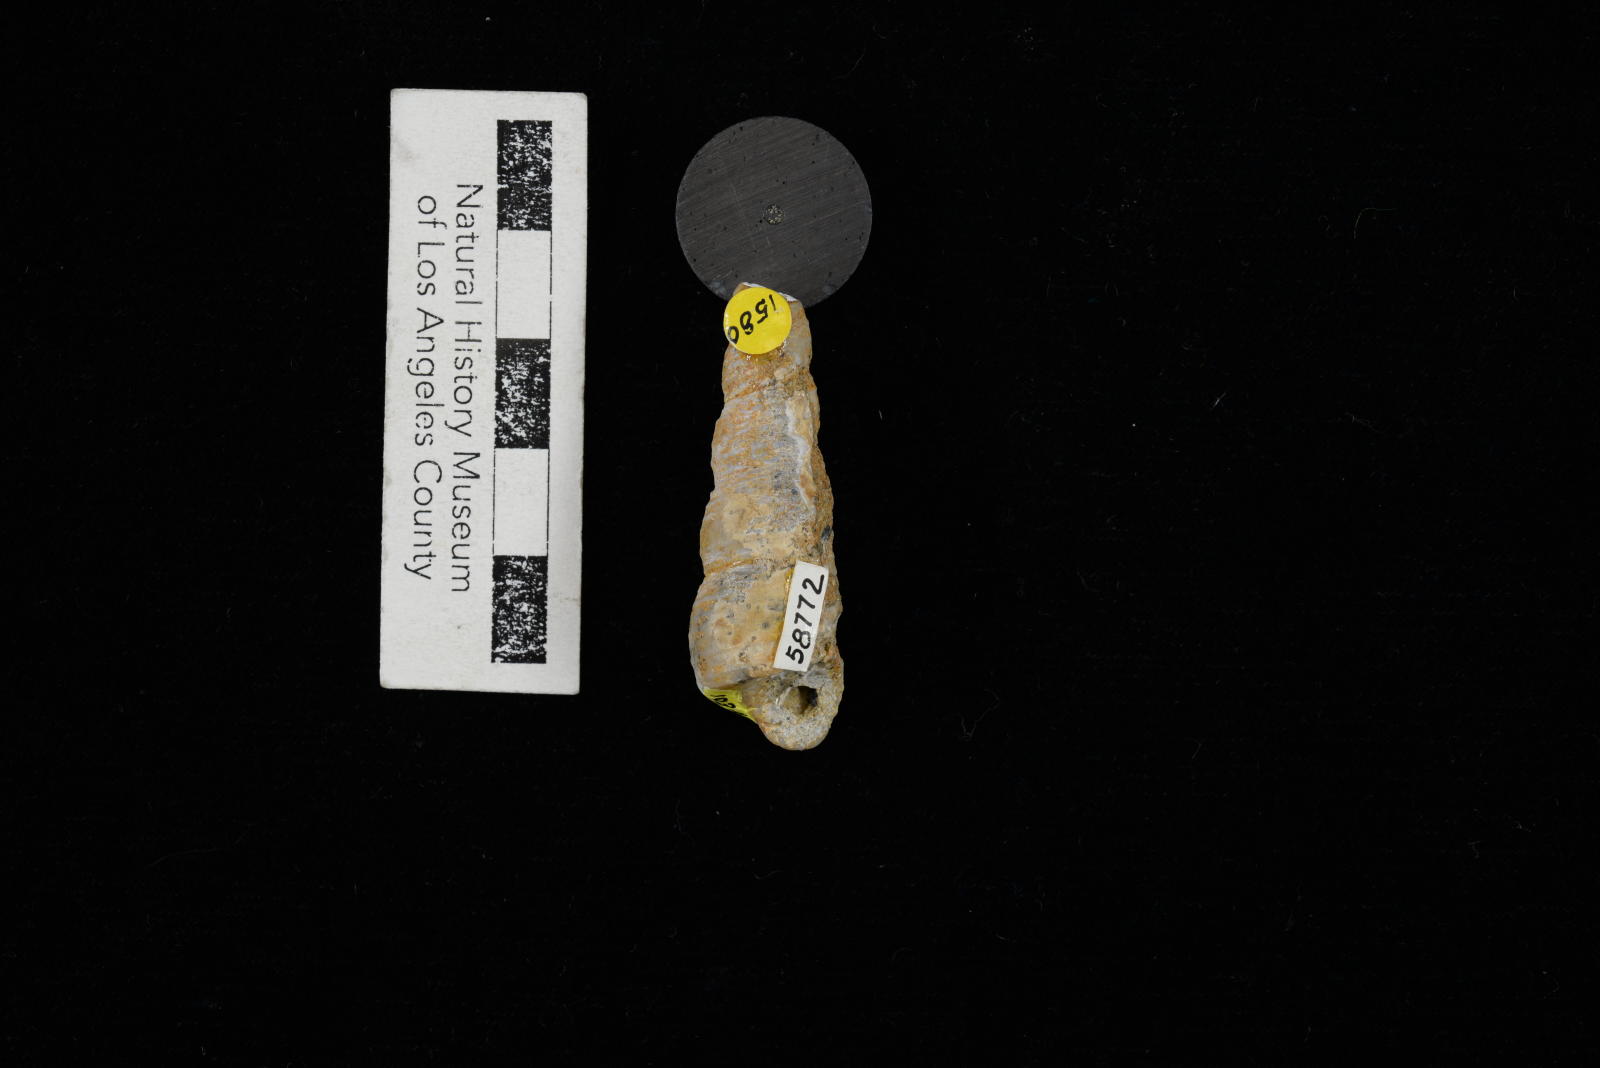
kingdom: Animalia
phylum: Mollusca
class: Gastropoda
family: Turritellidae
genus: Turritella
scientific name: Turritella
